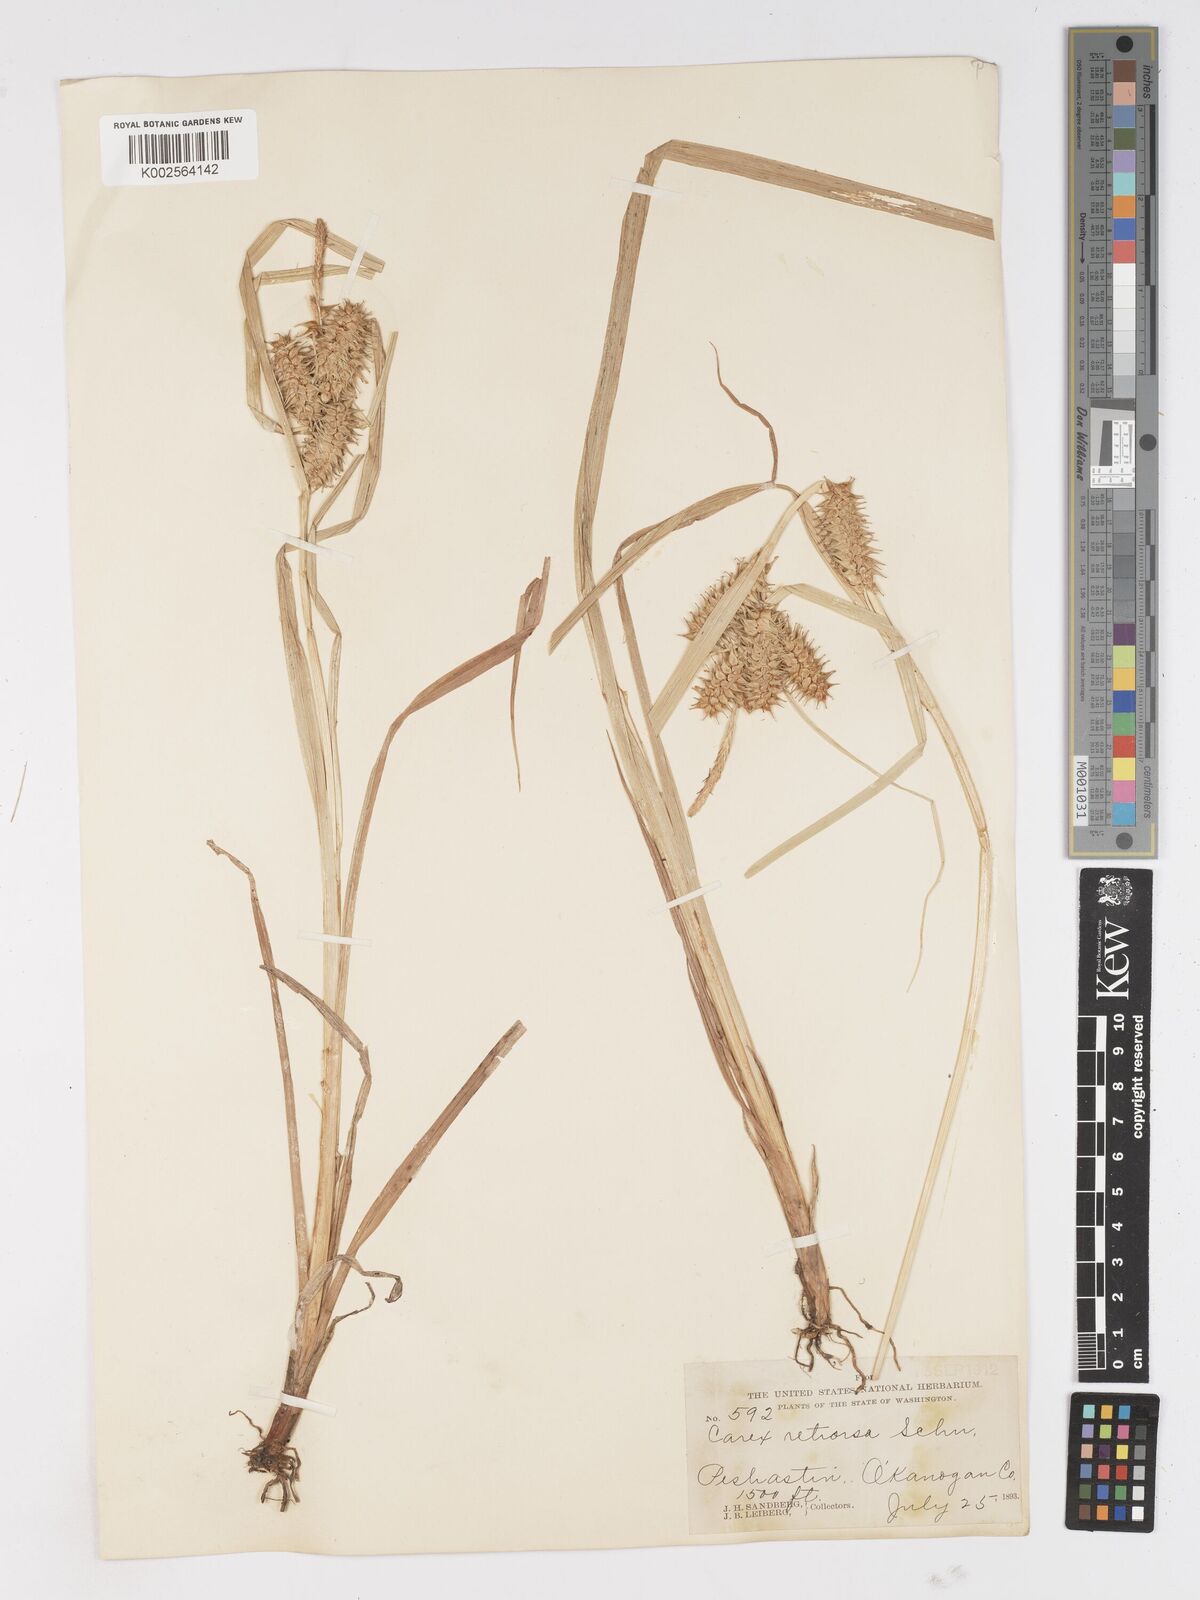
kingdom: Plantae
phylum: Tracheophyta
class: Liliopsida
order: Poales
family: Cyperaceae
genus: Carex
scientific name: Carex retrorsa
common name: Knot-sheath sedge
